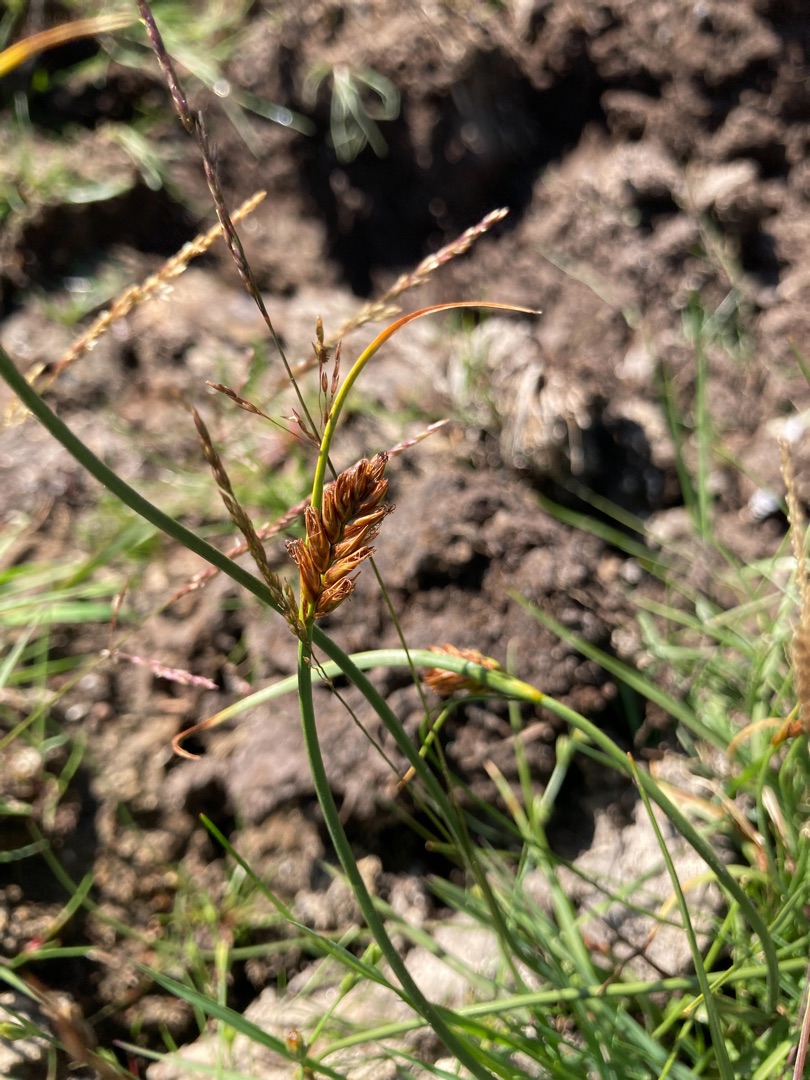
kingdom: Plantae
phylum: Tracheophyta
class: Liliopsida
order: Poales
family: Cyperaceae
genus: Blysmus
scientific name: Blysmus compressus
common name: Fladtrykt kogleaks
